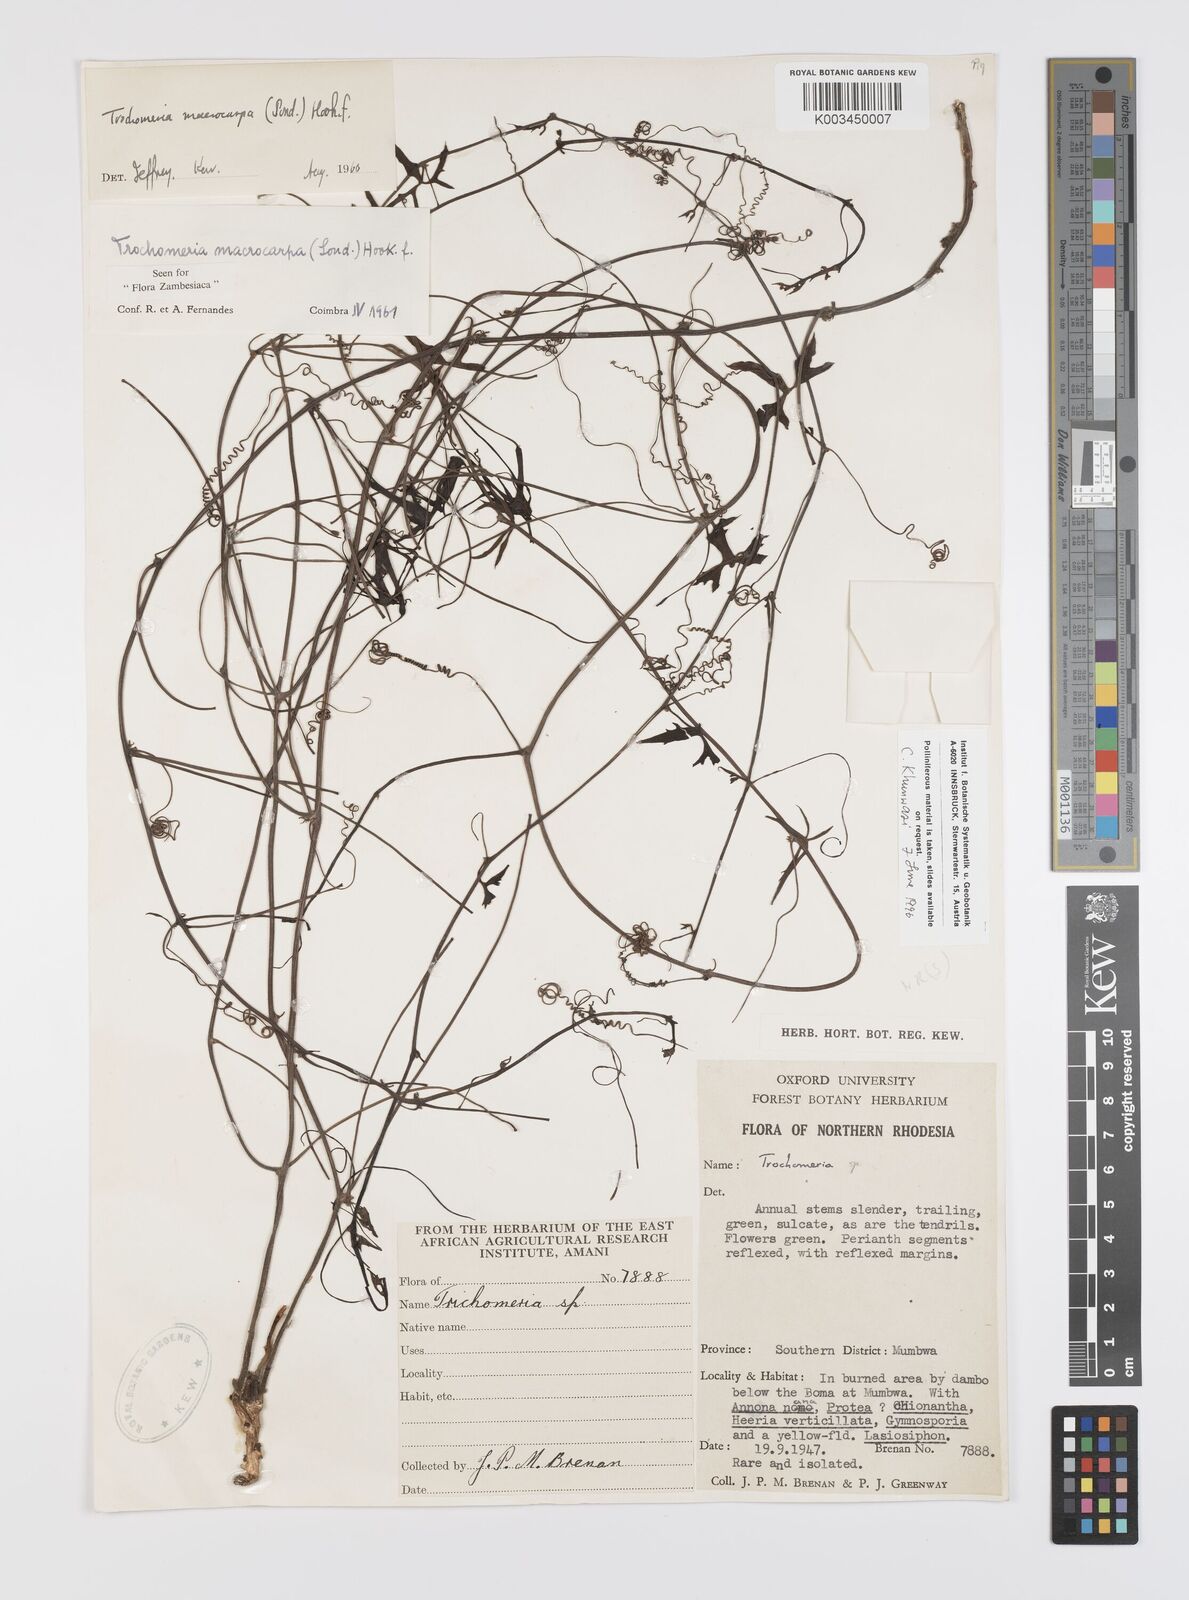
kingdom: Plantae
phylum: Tracheophyta
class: Magnoliopsida
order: Cucurbitales
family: Cucurbitaceae
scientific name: Cucurbitaceae
